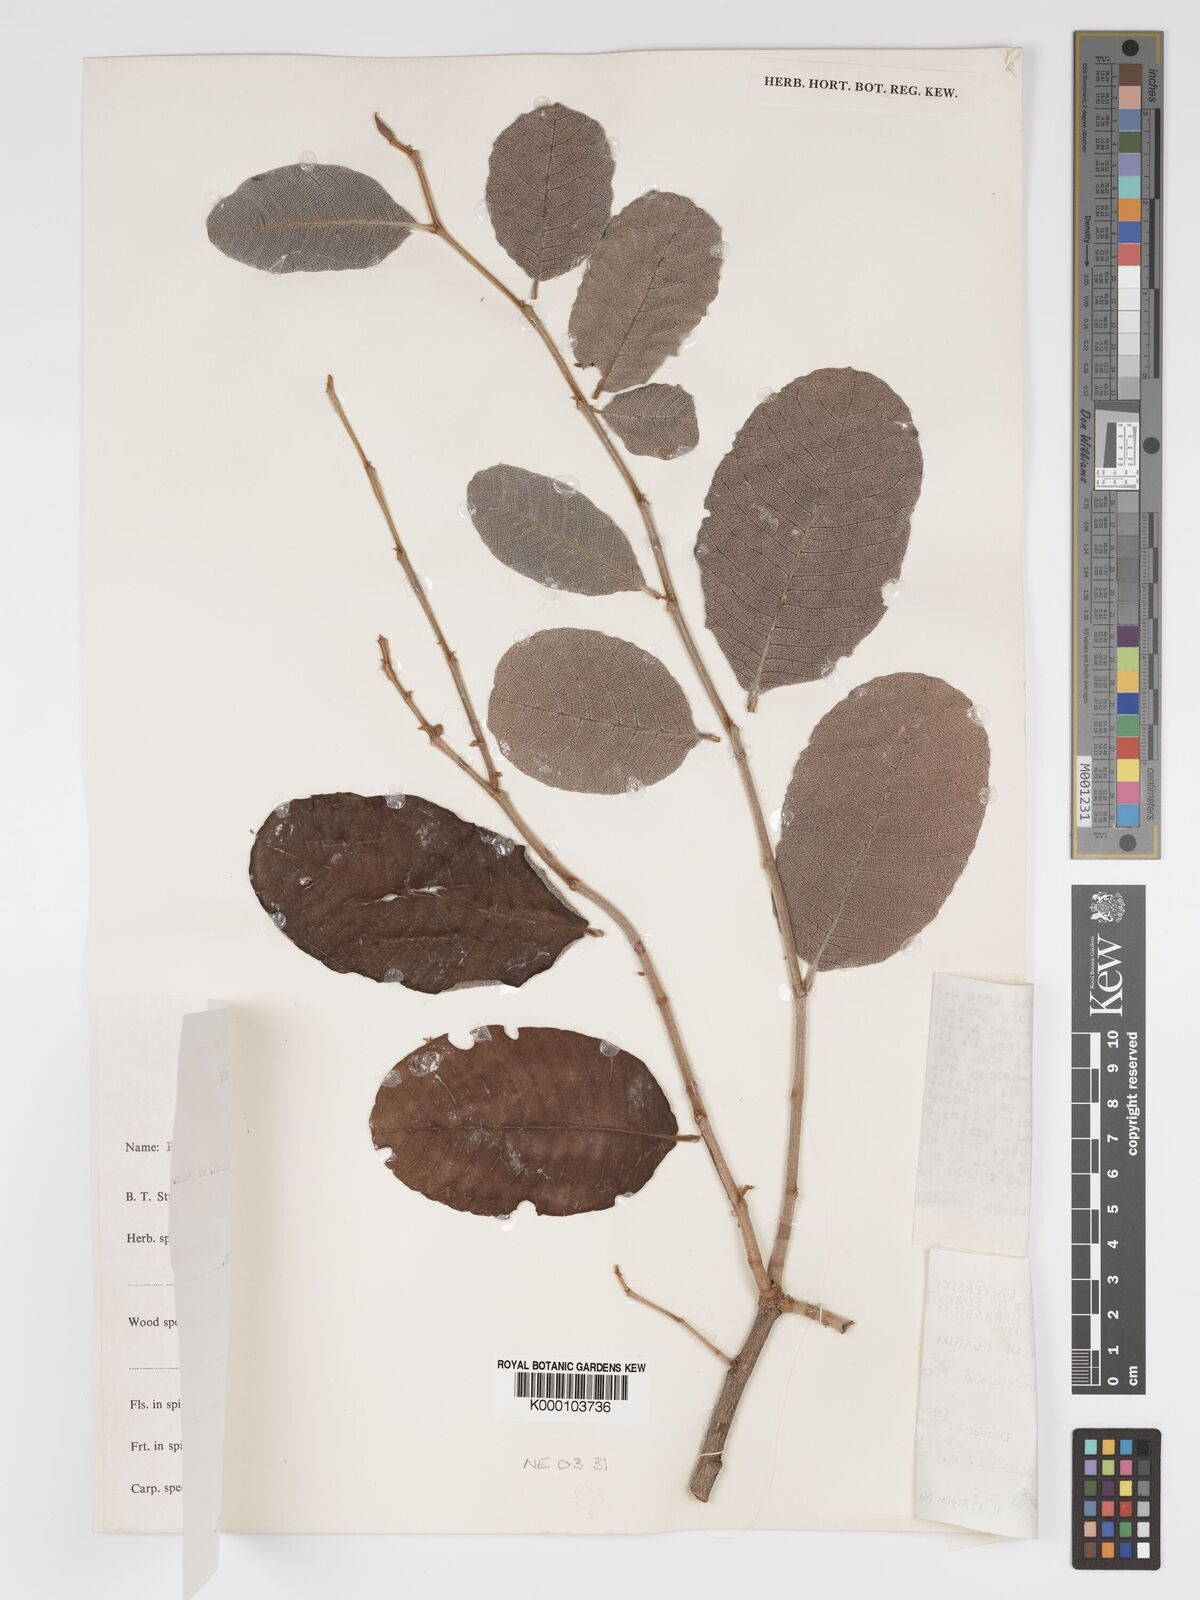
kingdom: Plantae
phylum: Tracheophyta
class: Magnoliopsida
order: Malpighiales
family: Chrysobalanaceae
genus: Parinari
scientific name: Parinari curatellifolia
